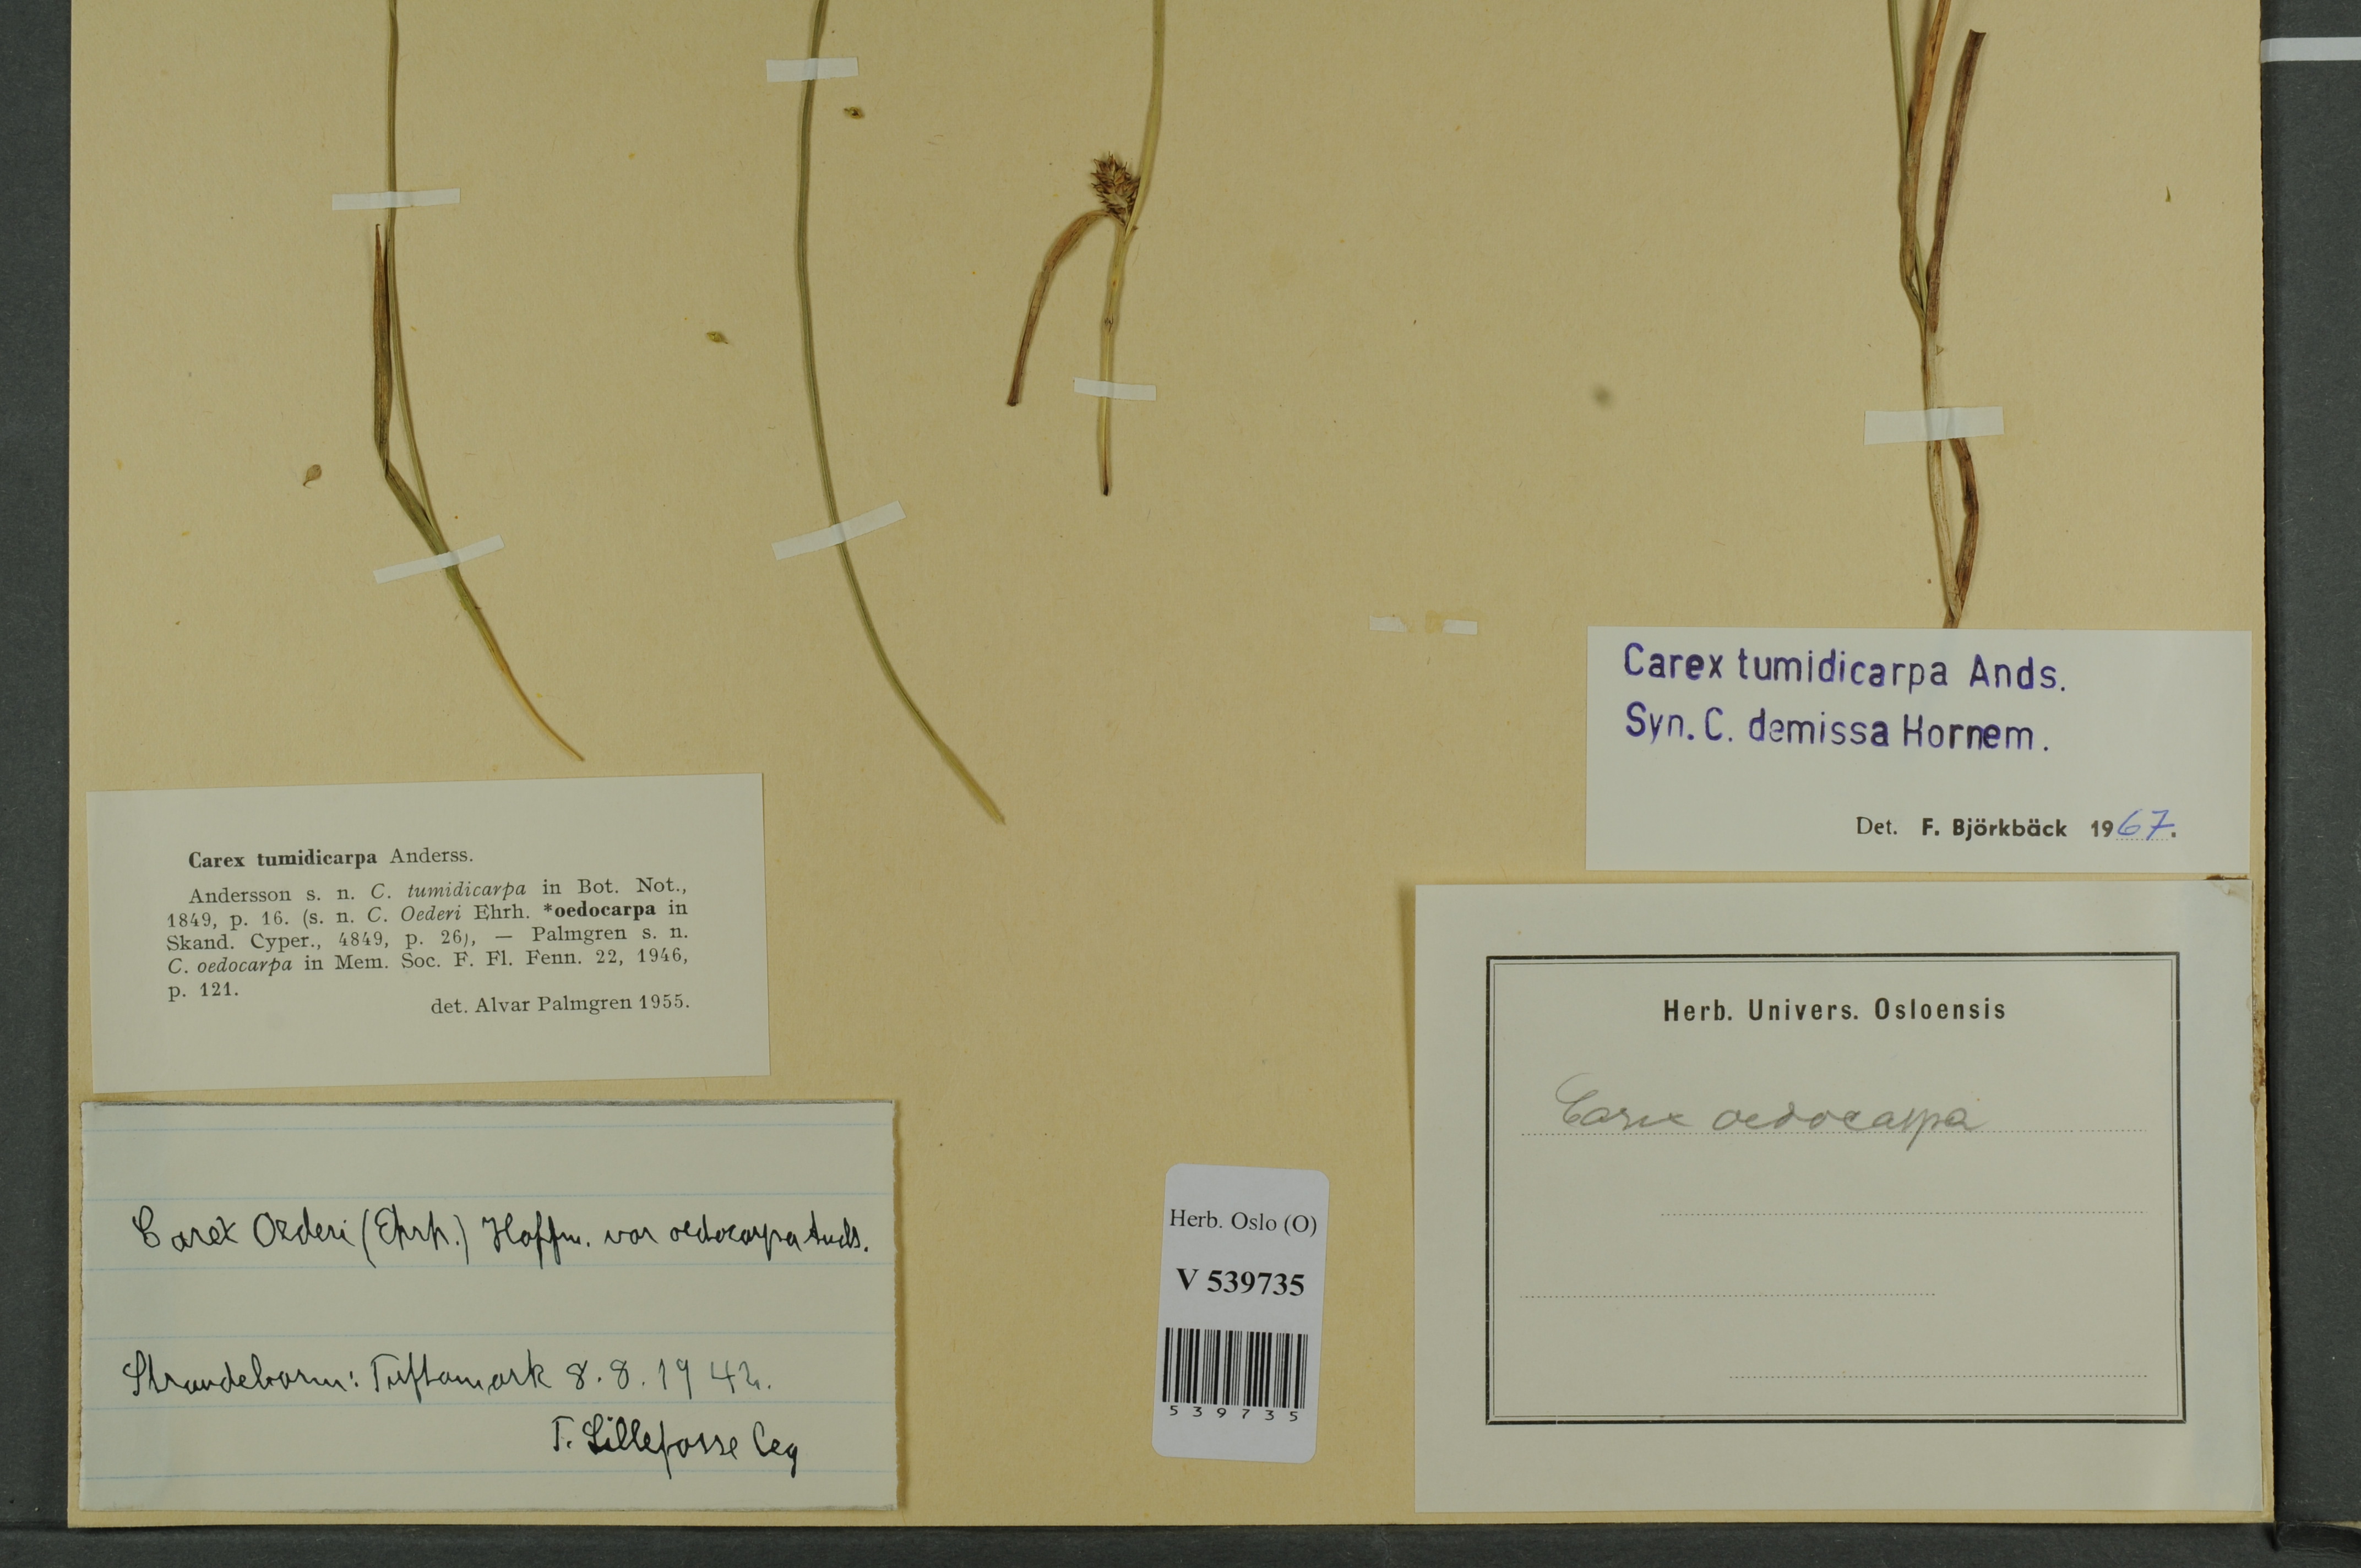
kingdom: Plantae
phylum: Tracheophyta
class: Liliopsida
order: Poales
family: Cyperaceae
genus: Carex
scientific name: Carex demissa
